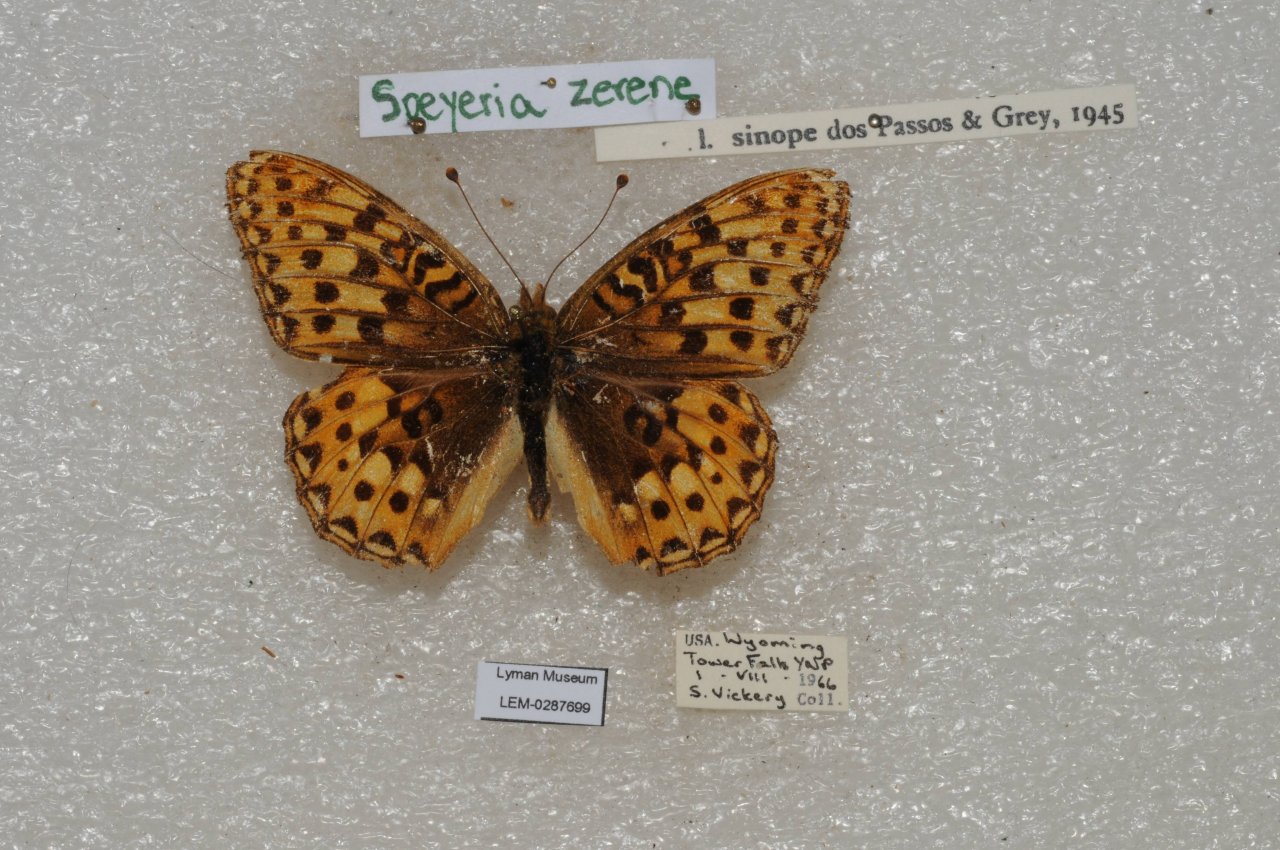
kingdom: Animalia
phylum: Arthropoda
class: Insecta
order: Lepidoptera
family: Nymphalidae
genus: Speyeria
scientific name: Speyeria zerene
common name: Zerene Fritillary
